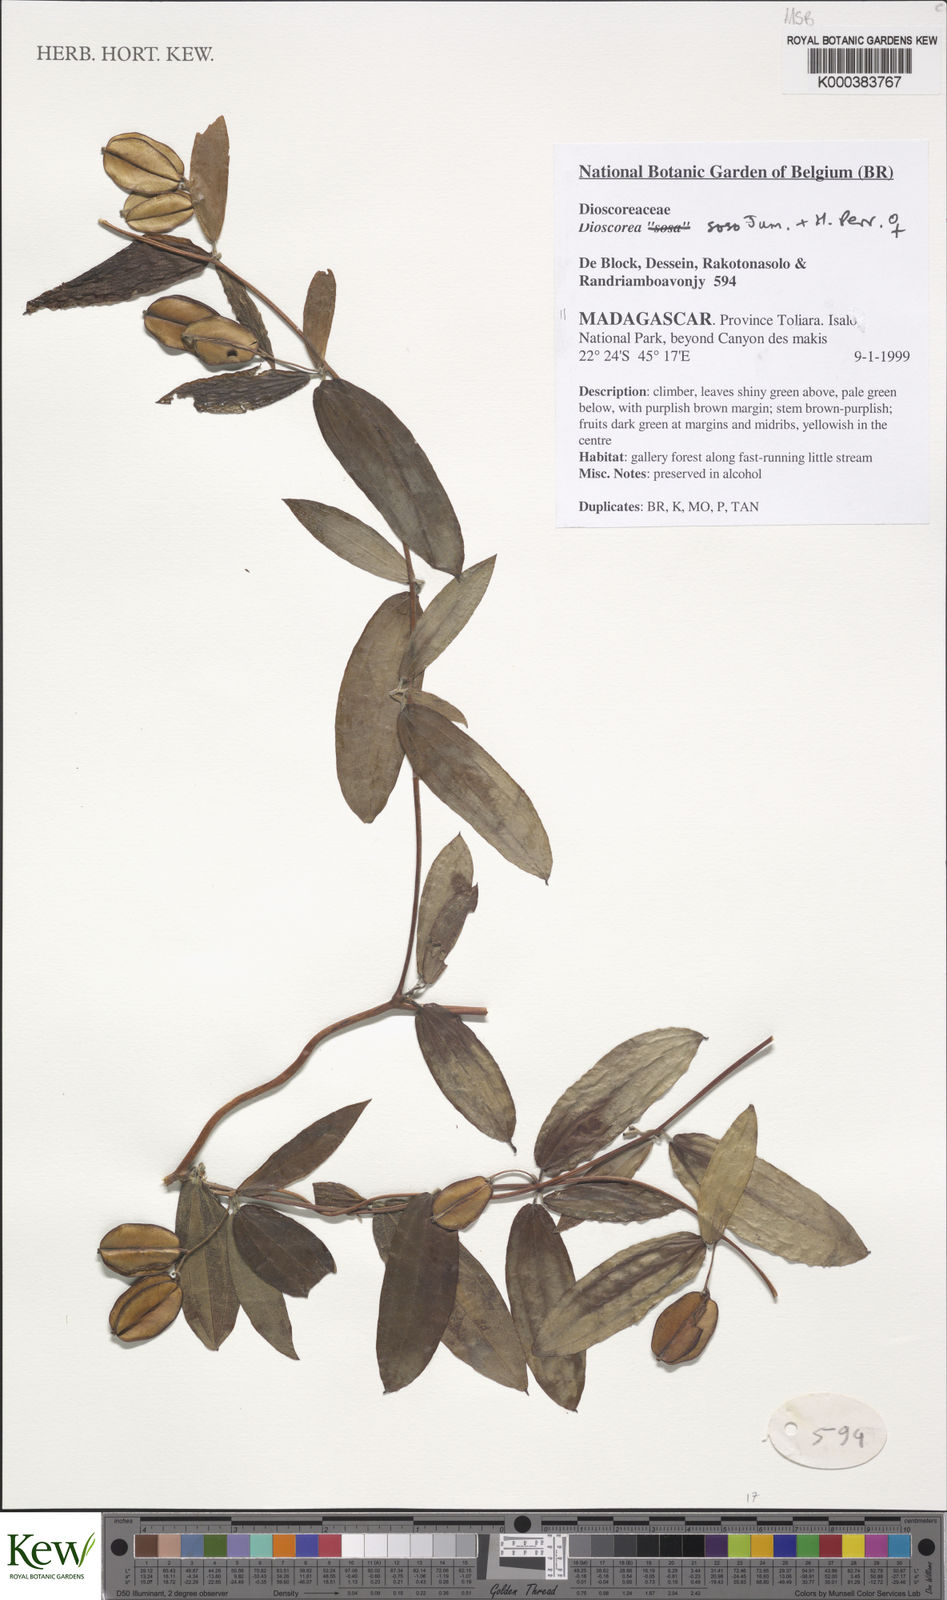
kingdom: Plantae
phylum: Tracheophyta
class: Liliopsida
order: Dioscoreales
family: Dioscoreaceae
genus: Dioscorea
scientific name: Dioscorea
